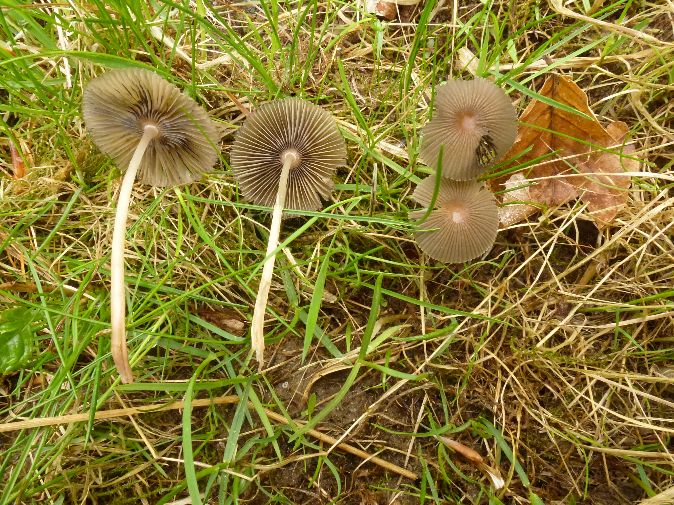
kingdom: Fungi
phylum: Basidiomycota
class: Agaricomycetes
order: Agaricales
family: Psathyrellaceae
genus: Parasola
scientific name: Parasola kuehneri
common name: skygge-hjulhat
